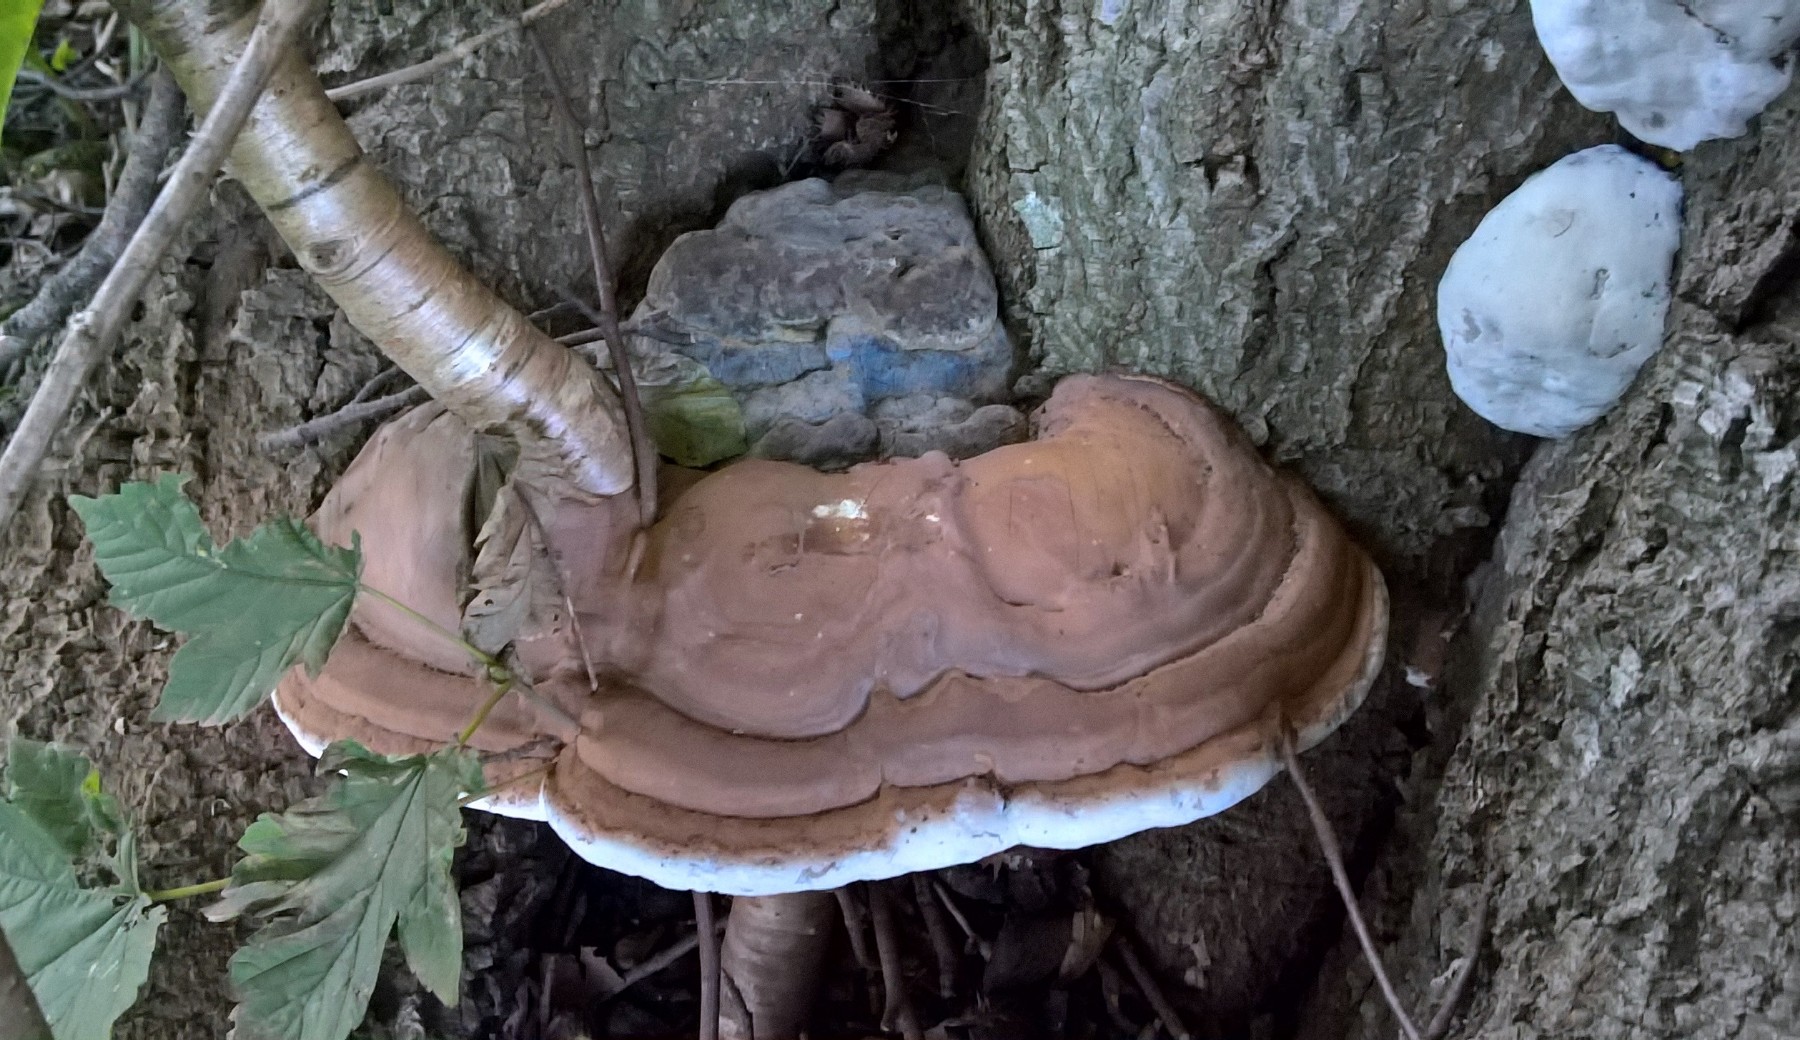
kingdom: Fungi
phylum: Basidiomycota
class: Agaricomycetes
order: Polyporales
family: Polyporaceae
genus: Ganoderma
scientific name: Ganoderma pfeifferi
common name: kobberrød lakporesvamp
